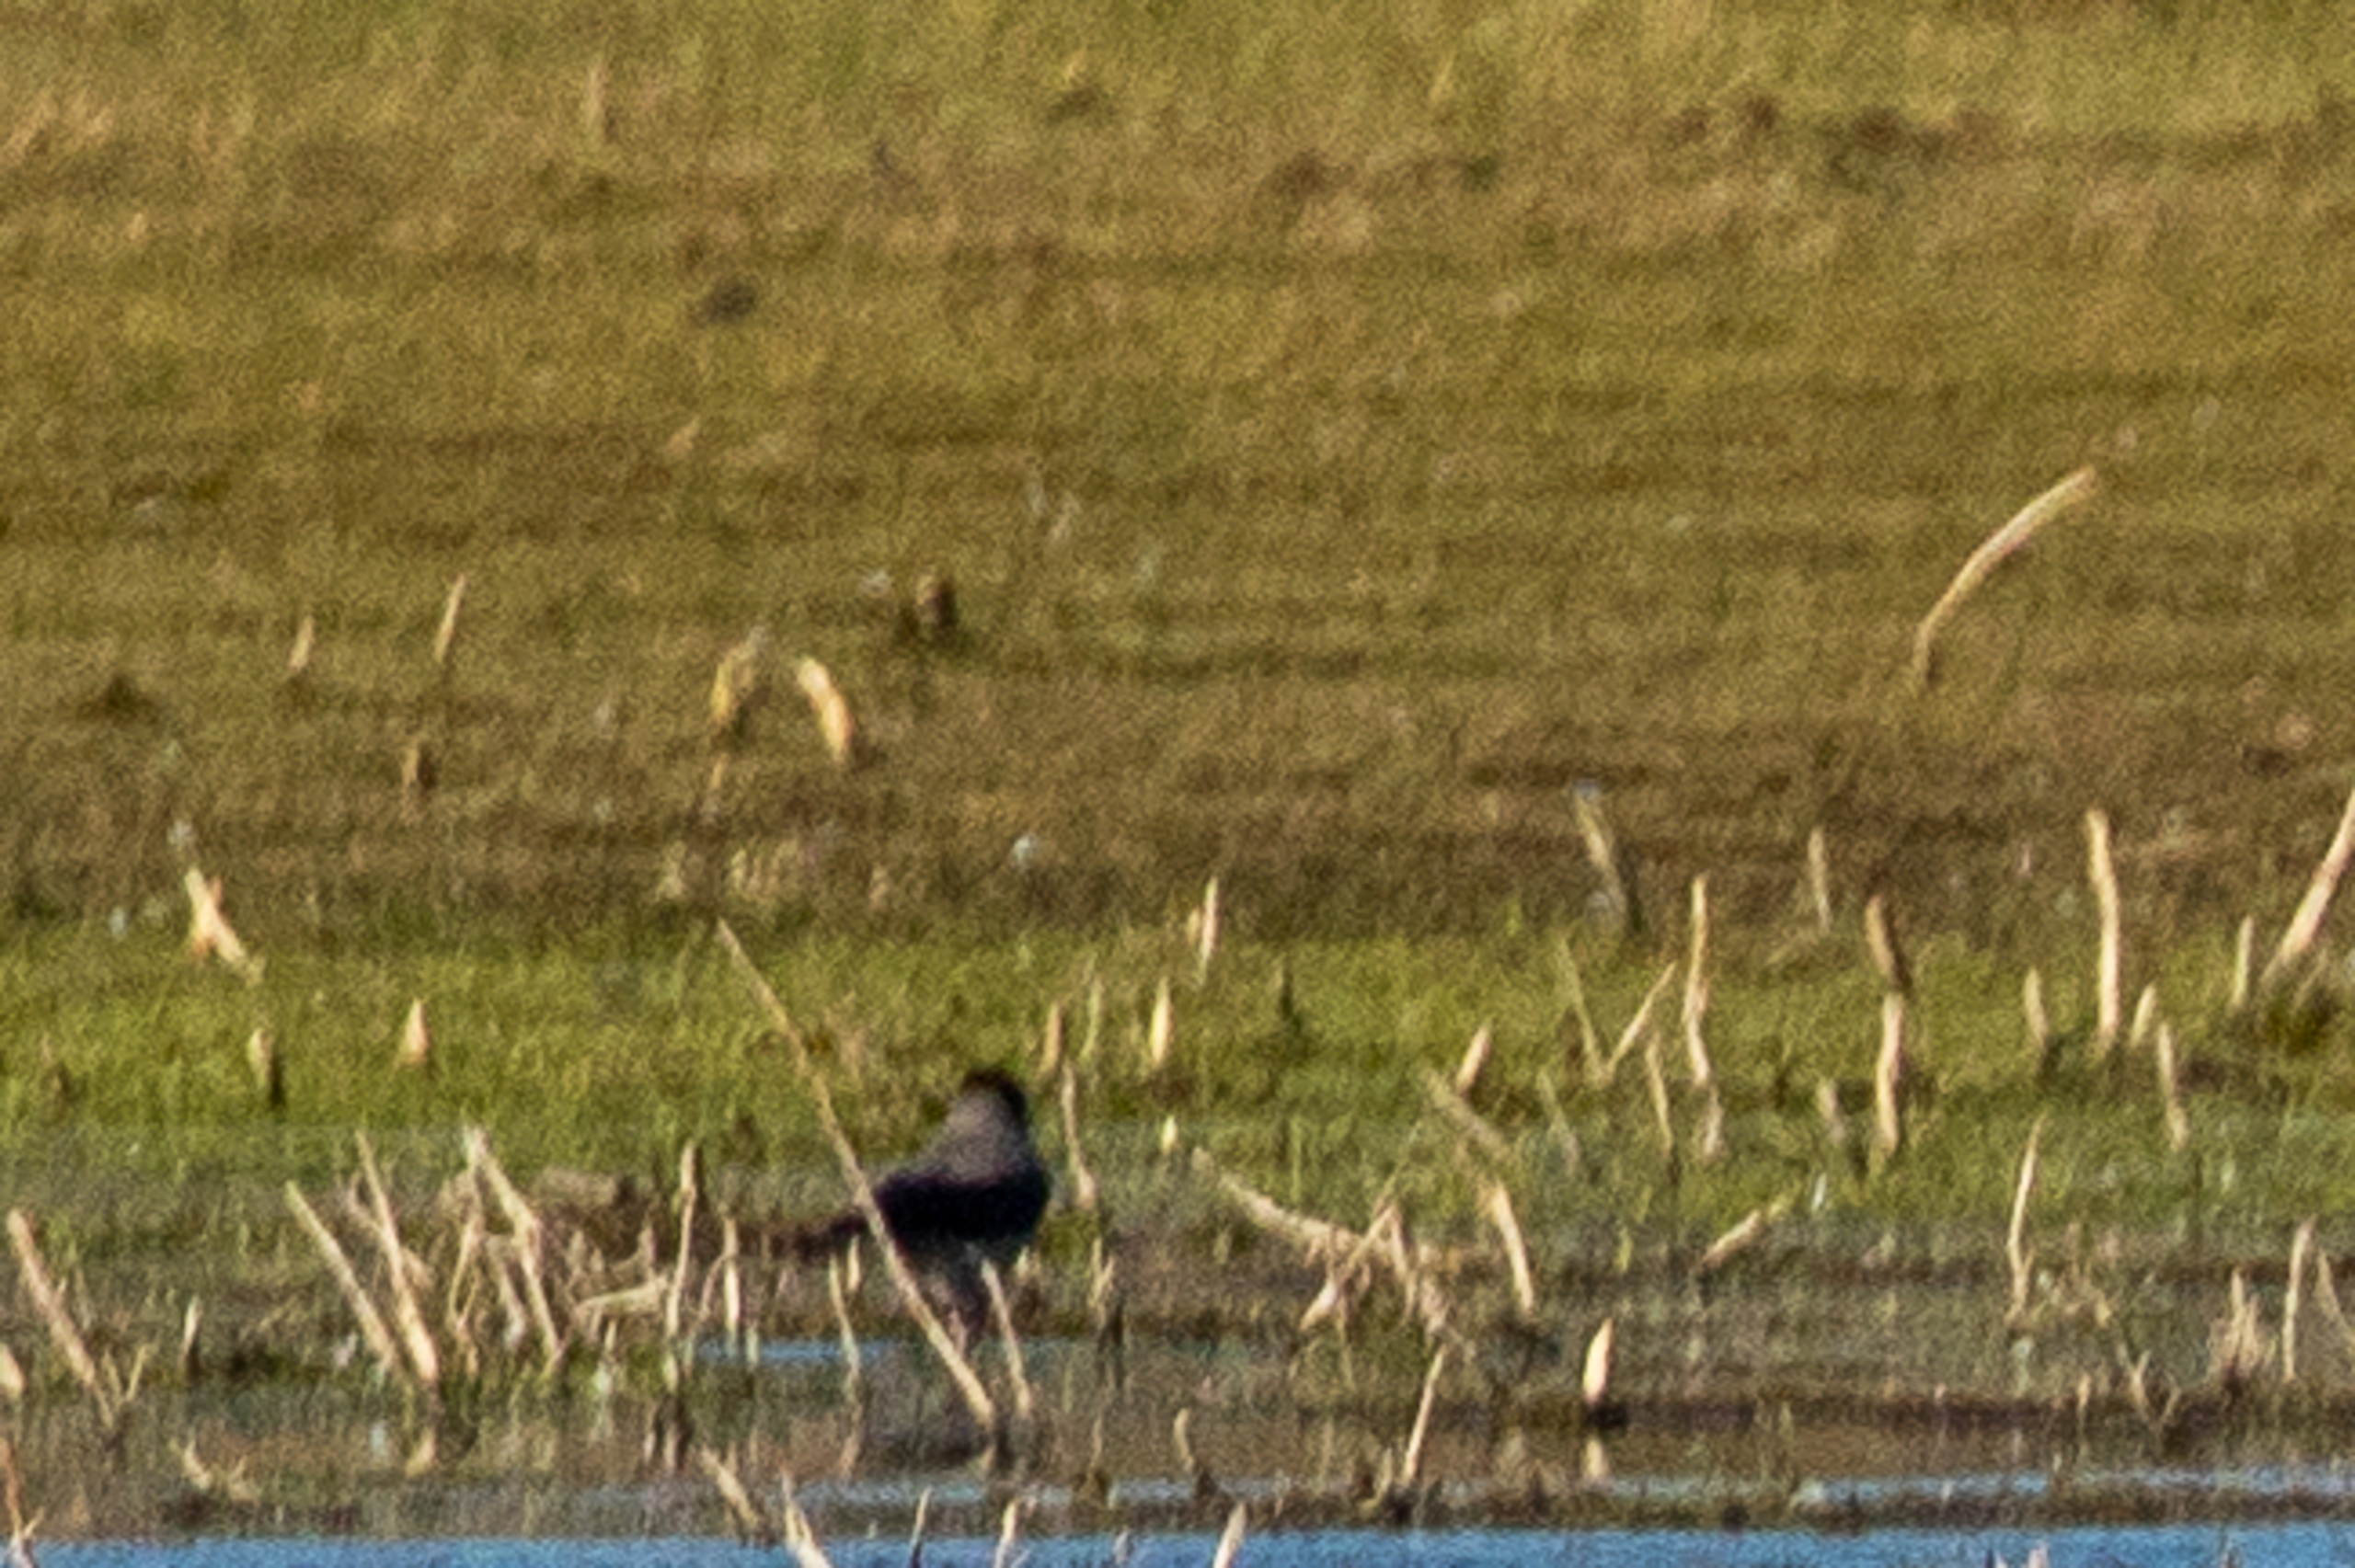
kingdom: Animalia
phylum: Chordata
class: Aves
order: Passeriformes
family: Corvidae
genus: Corvus
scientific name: Corvus cornix
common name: Gråkrage
